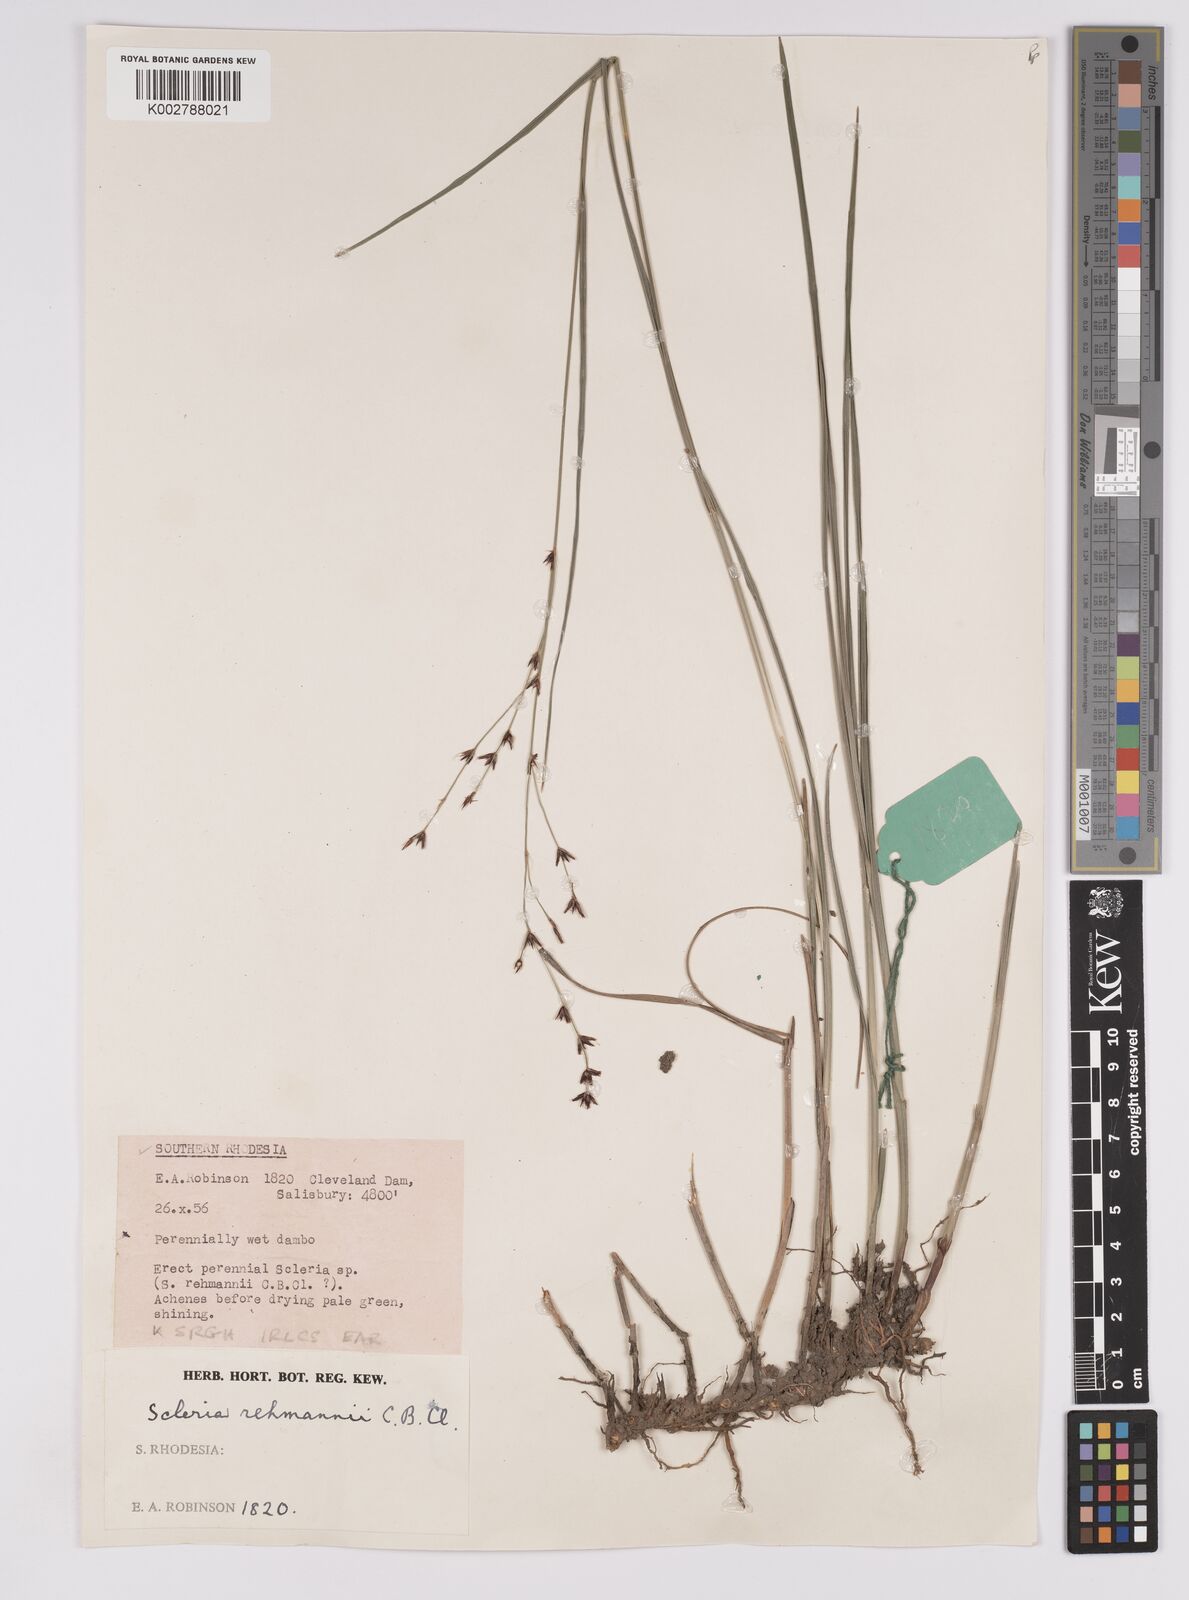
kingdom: Plantae
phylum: Tracheophyta
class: Liliopsida
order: Poales
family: Cyperaceae
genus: Scleria
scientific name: Scleria rehmannii
